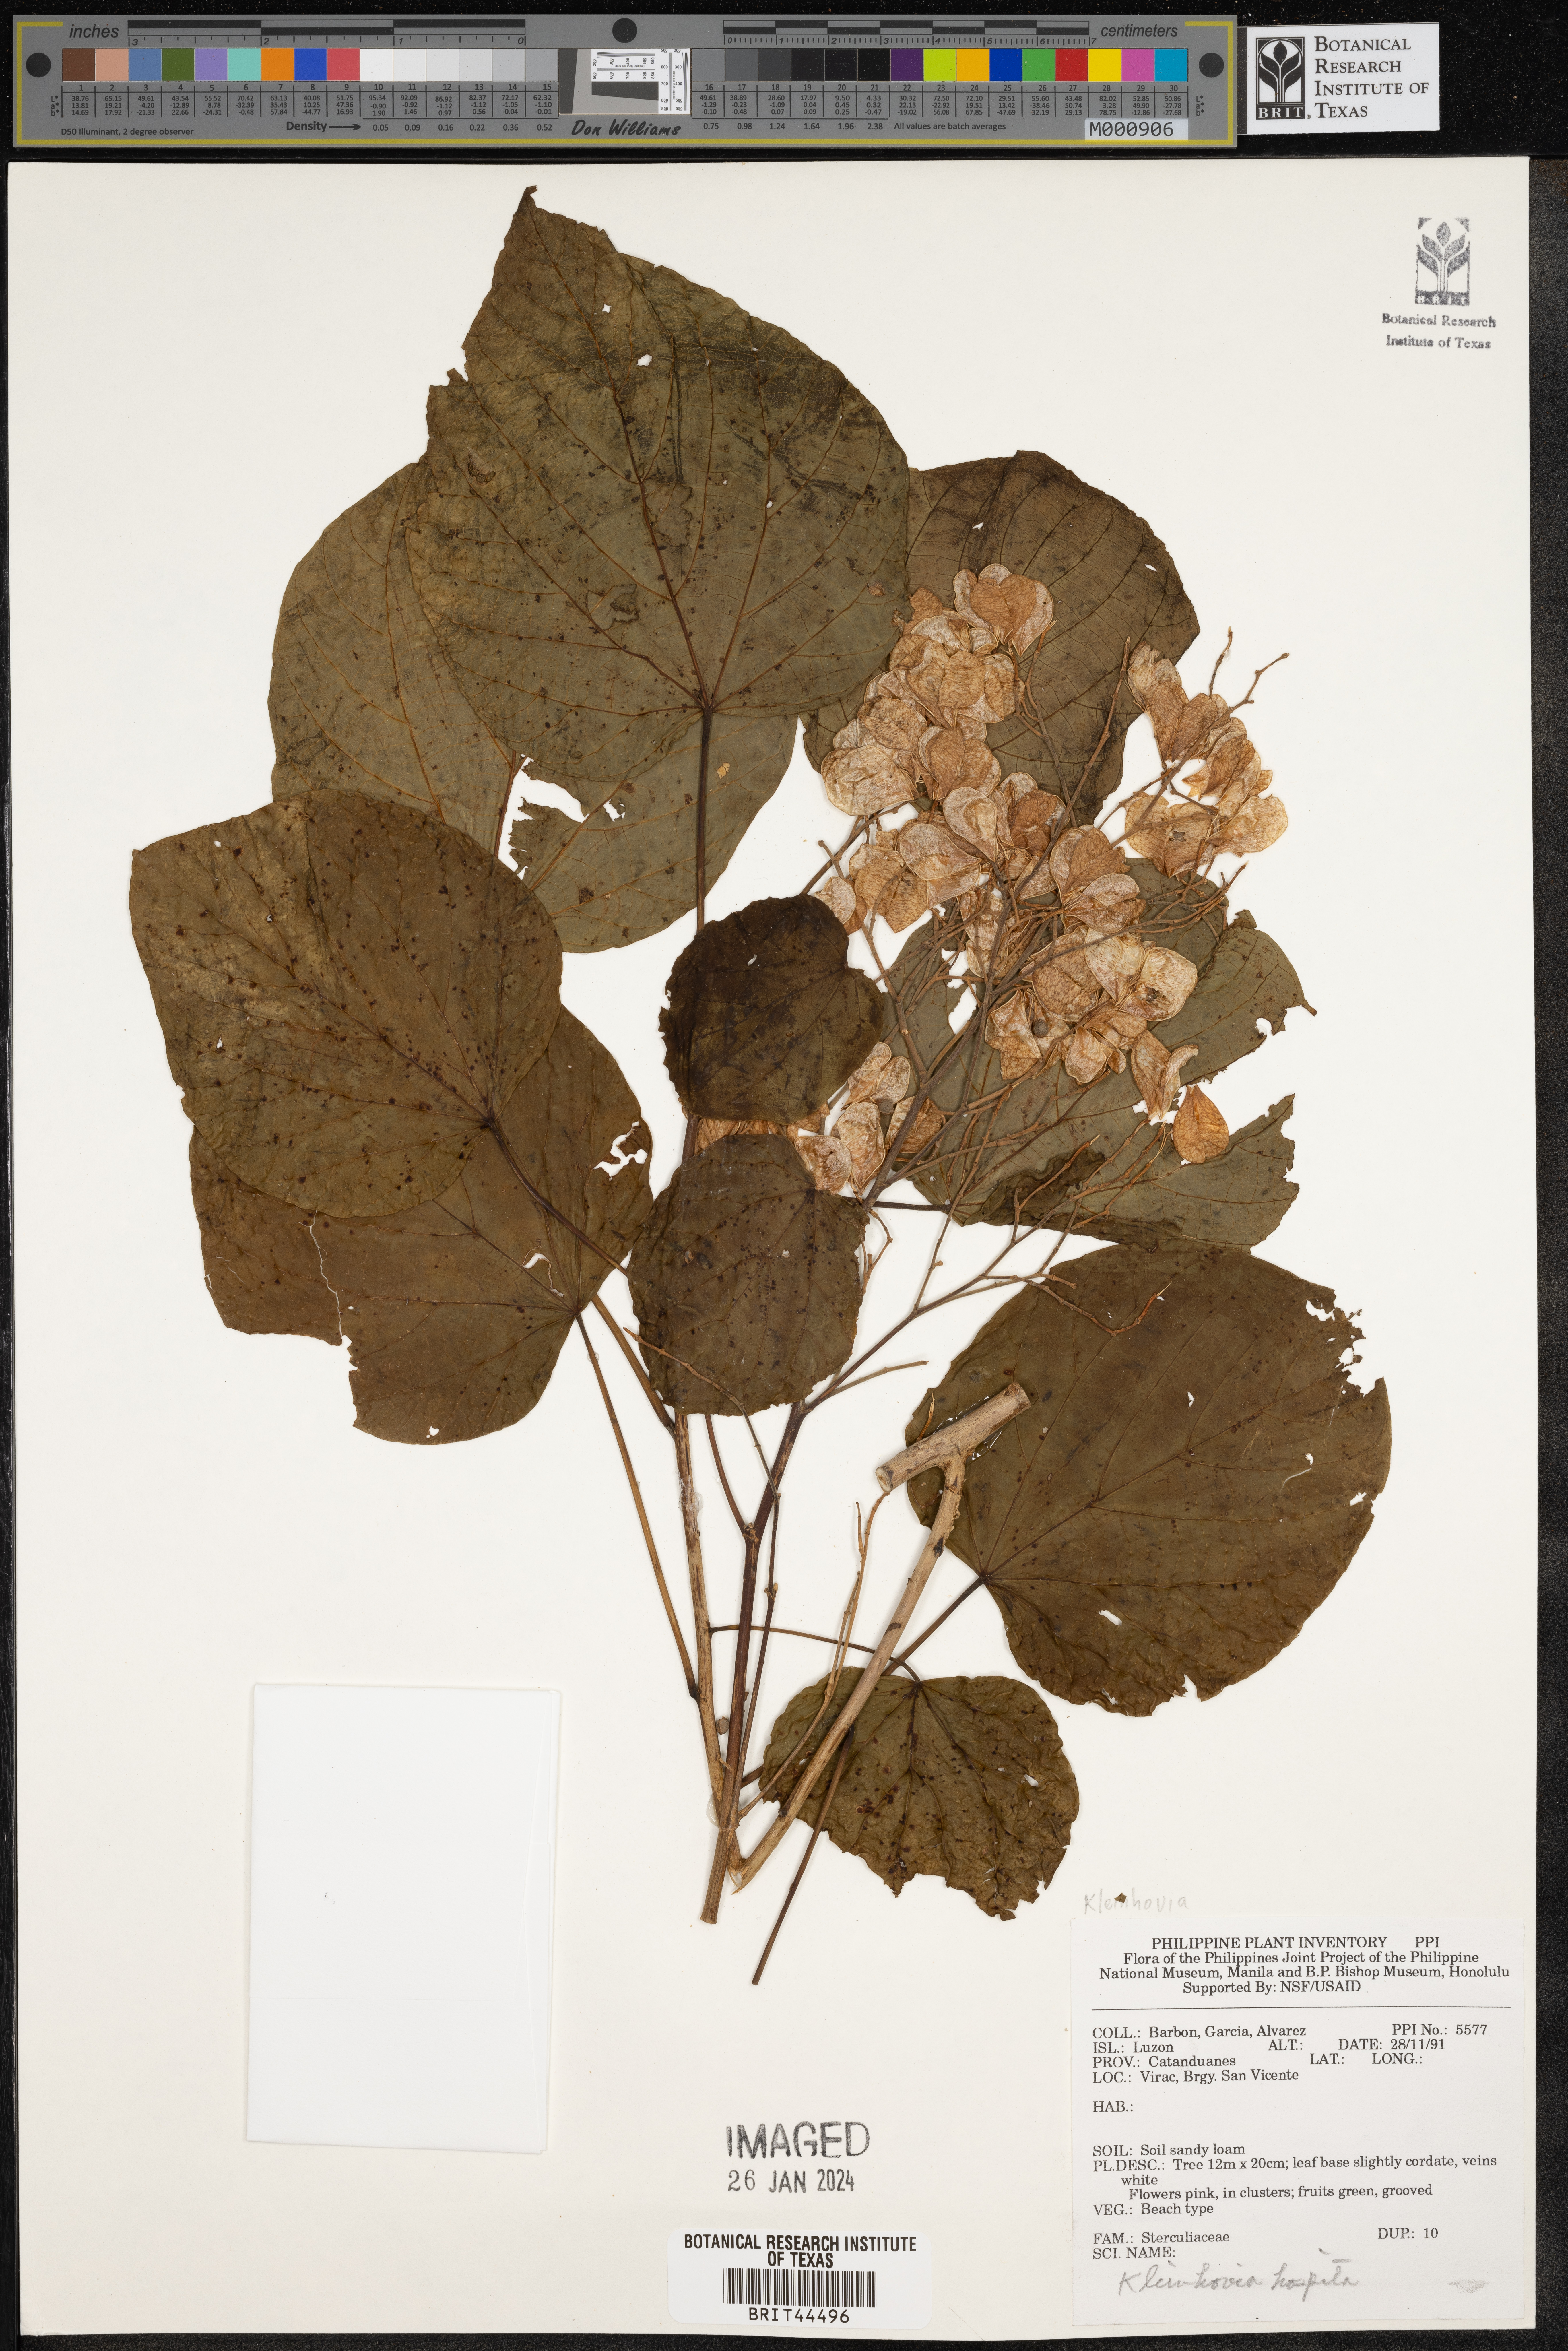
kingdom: Plantae
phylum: Tracheophyta
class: Magnoliopsida
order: Malvales
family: Malvaceae
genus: Kleinhovia
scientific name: Kleinhovia hospita
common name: Guest-tree
